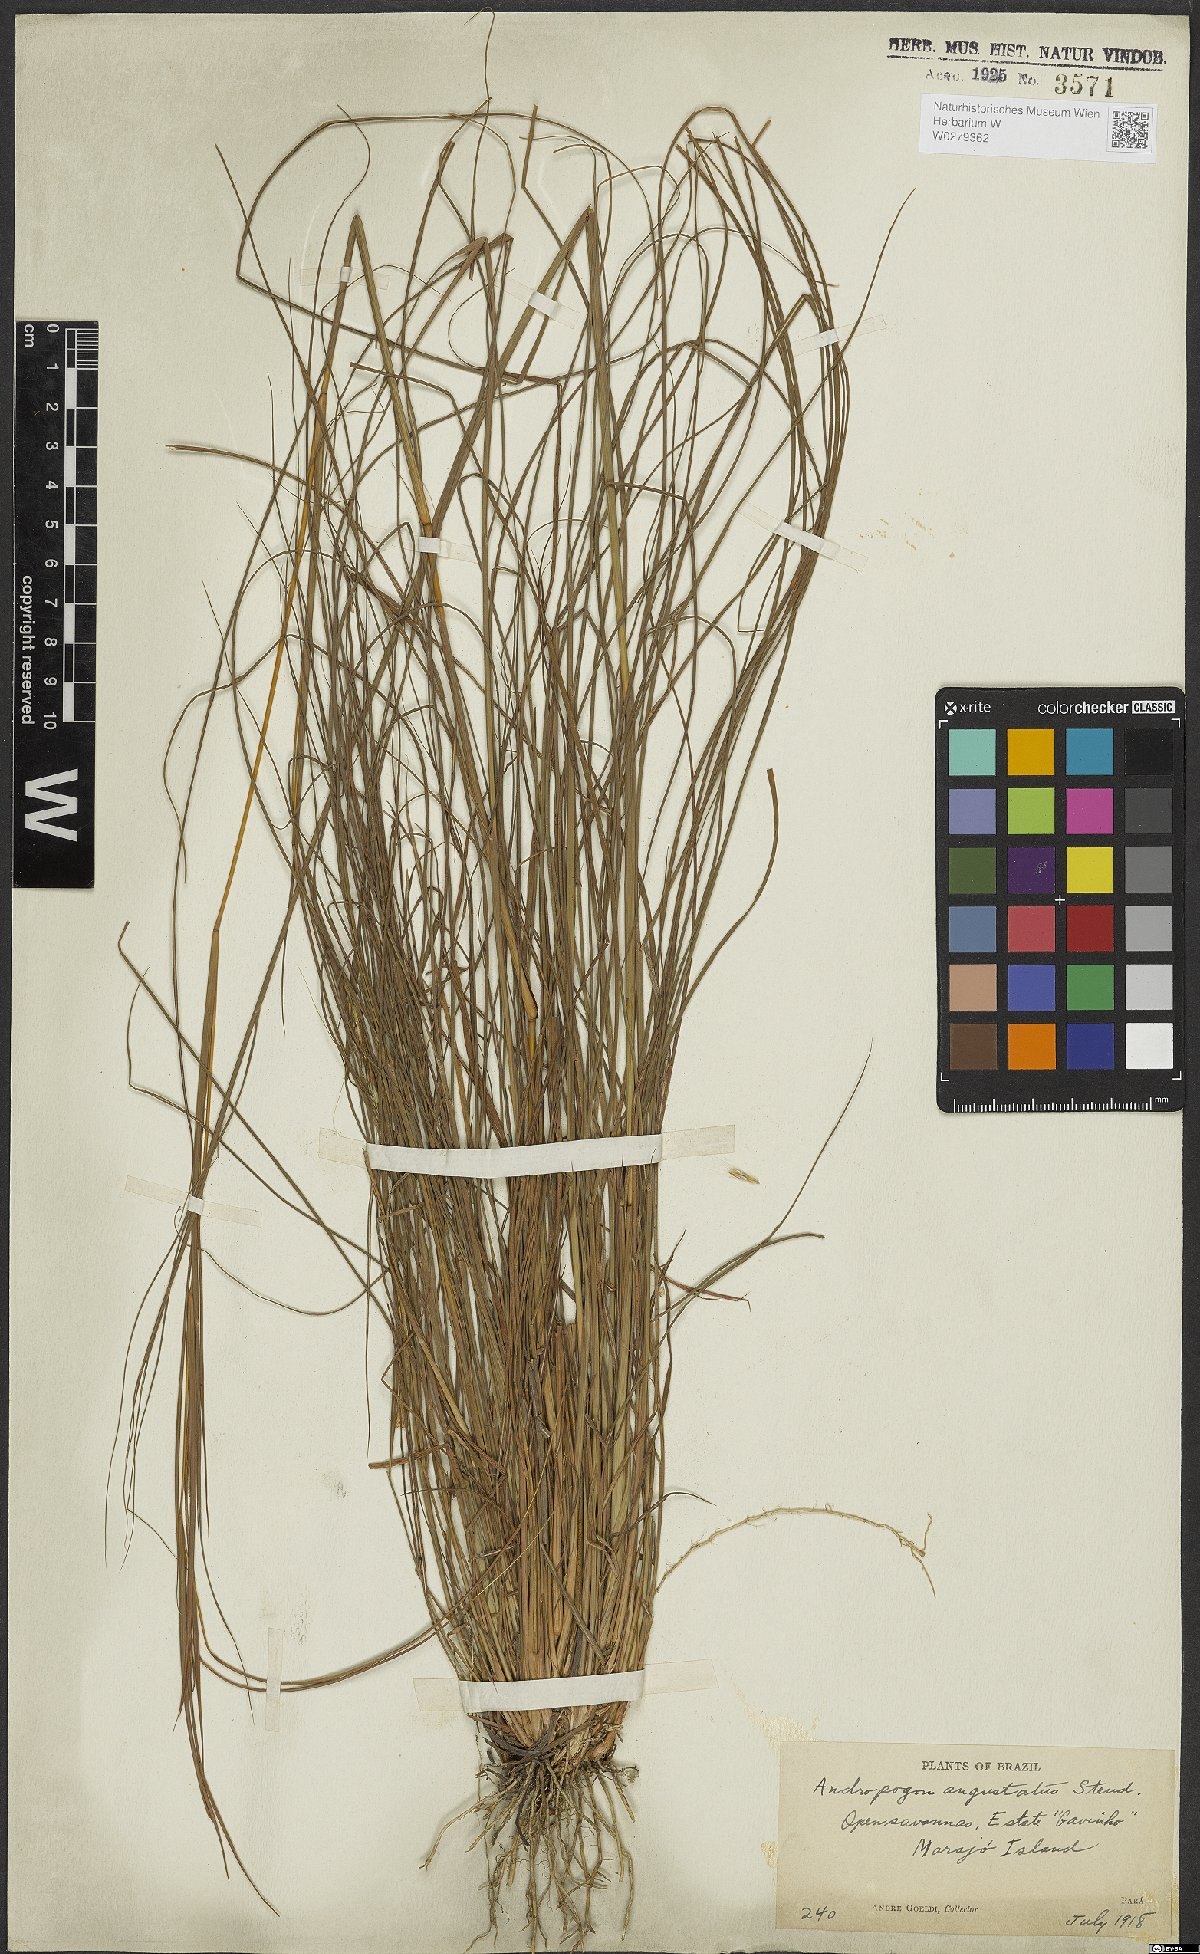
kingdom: Plantae
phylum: Tracheophyta
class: Liliopsida
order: Poales
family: Poaceae
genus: Andropogon
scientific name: Andropogon angustatus
